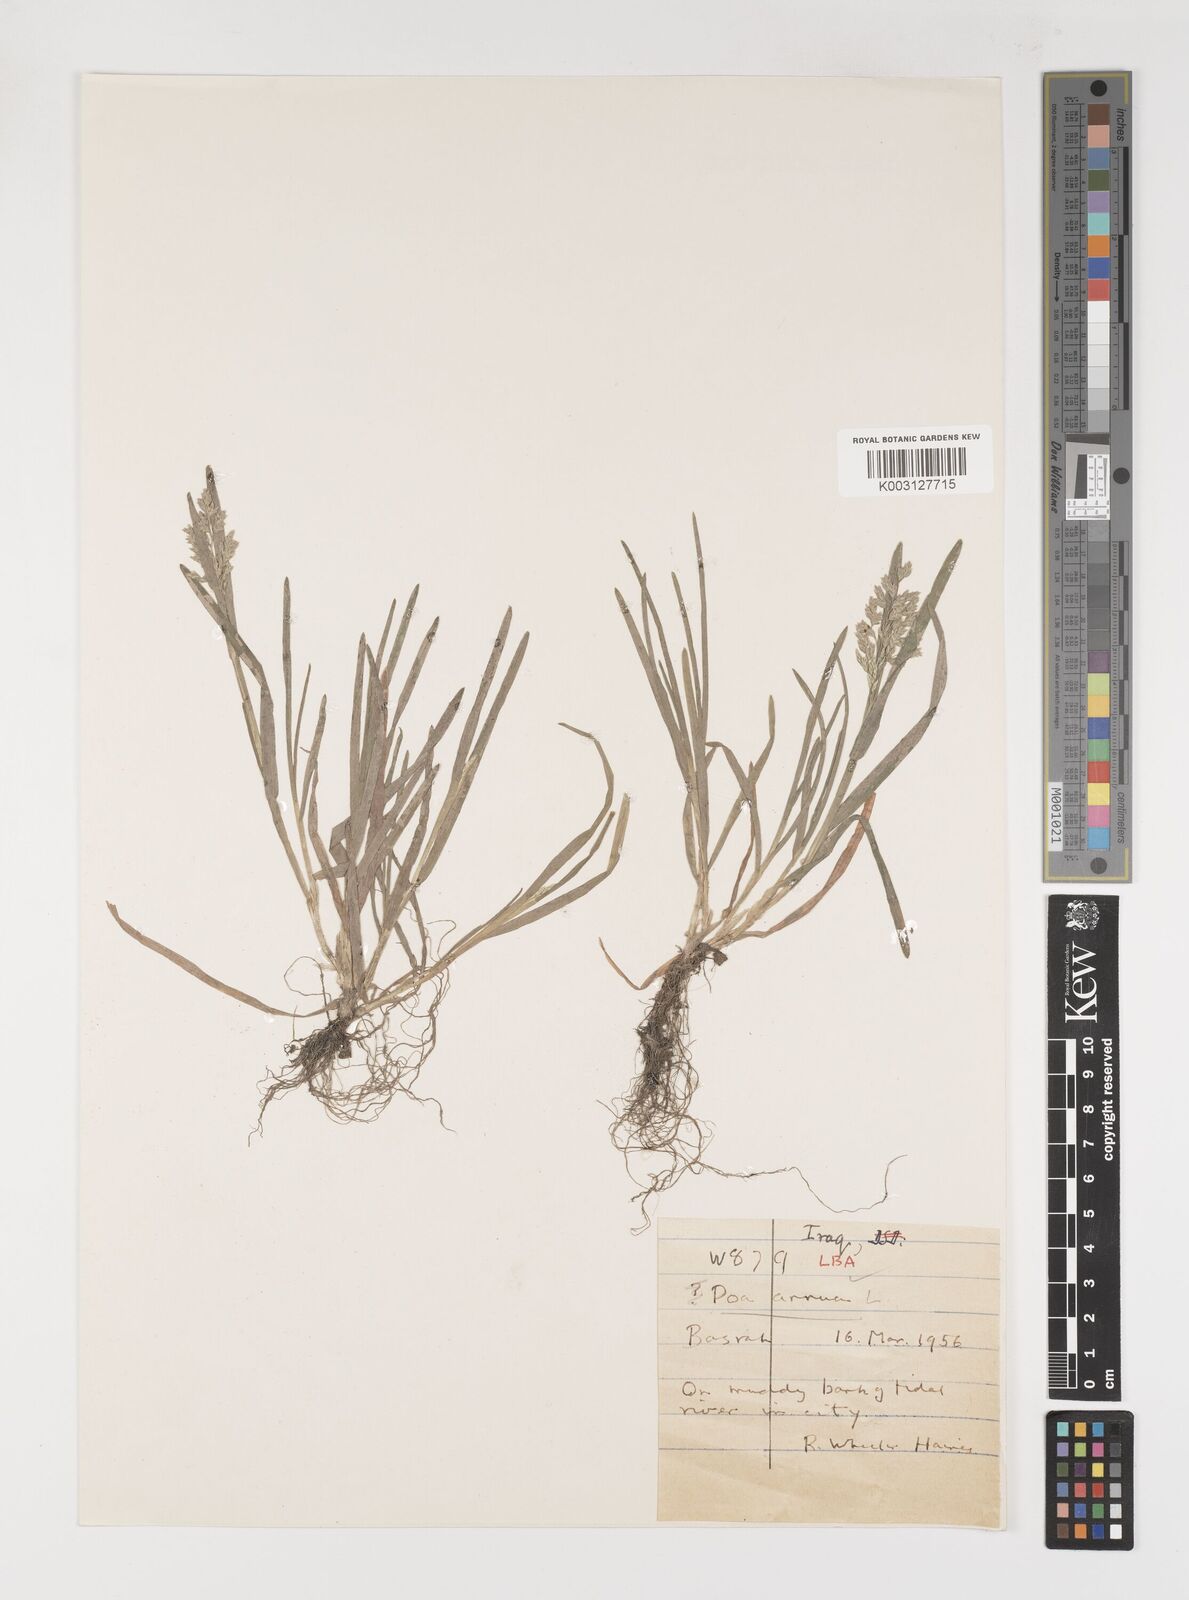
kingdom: Plantae
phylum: Tracheophyta
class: Liliopsida
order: Poales
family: Poaceae
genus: Poa
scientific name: Poa annua
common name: Annual bluegrass
